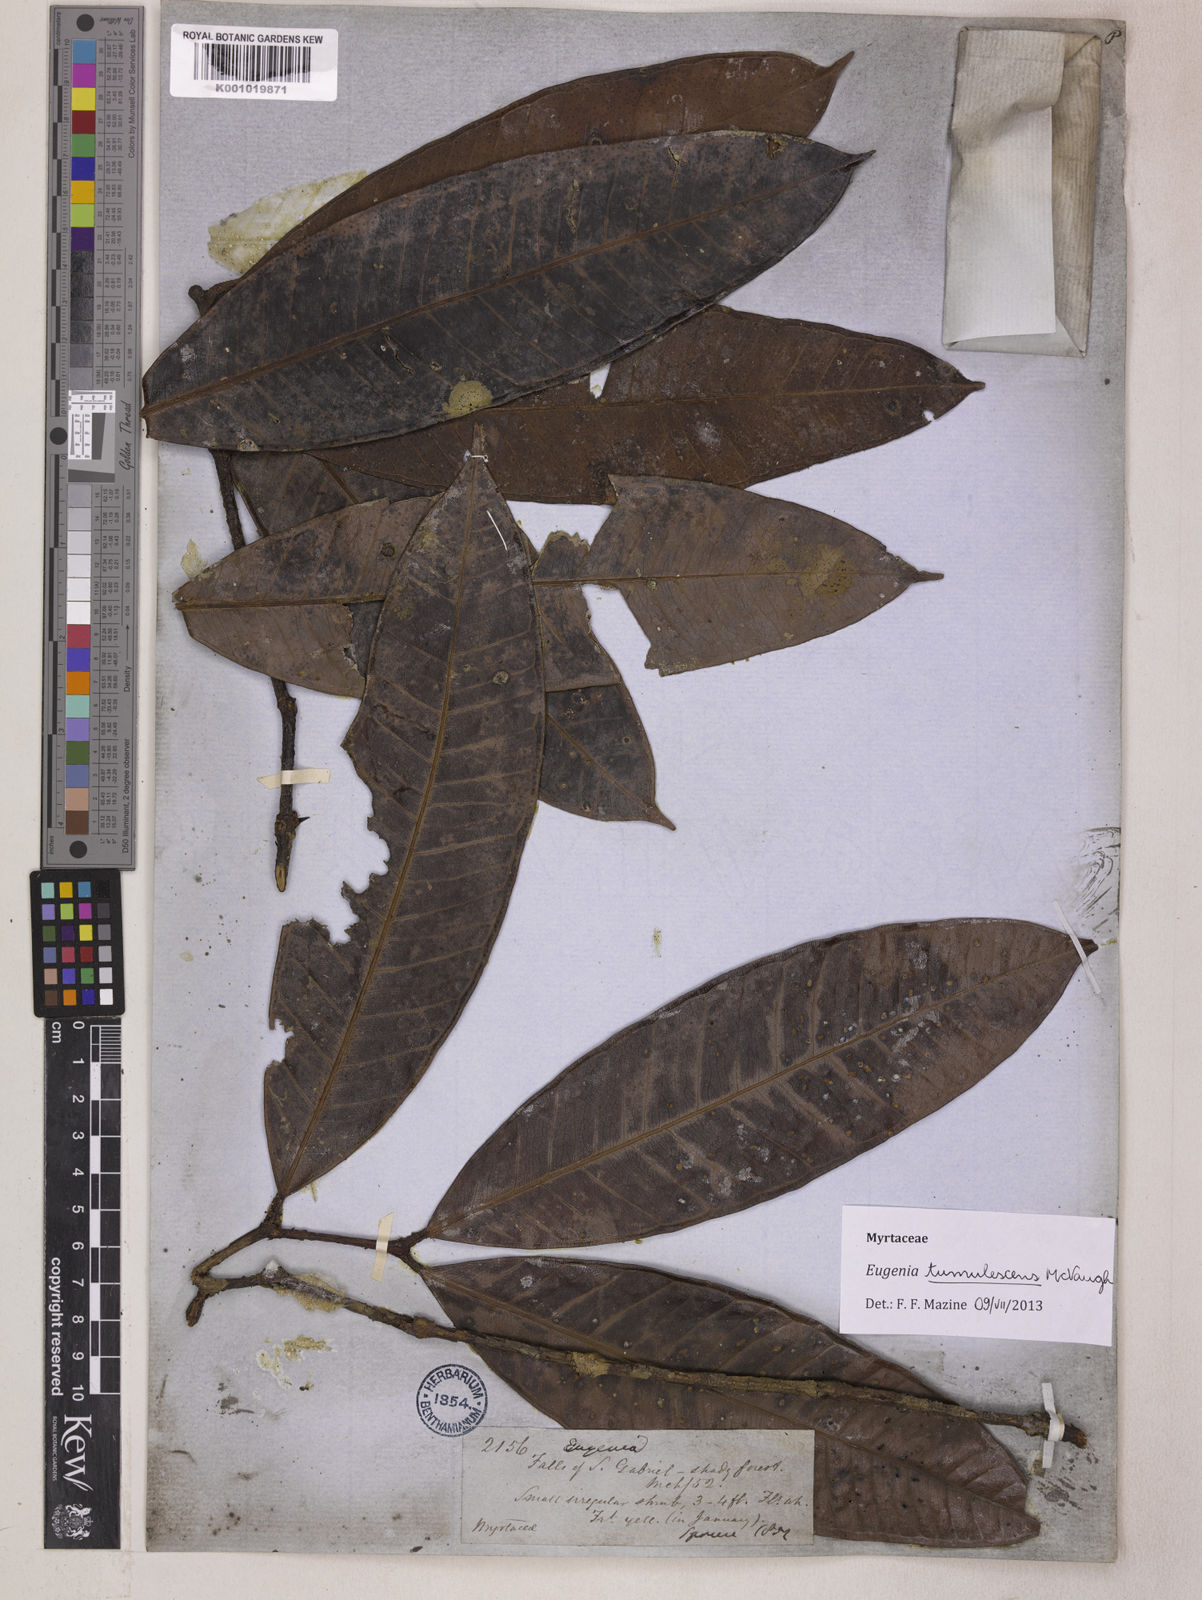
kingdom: Plantae
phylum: Tracheophyta
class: Magnoliopsida
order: Myrtales
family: Myrtaceae
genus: Eugenia
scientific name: Eugenia tumulescens
